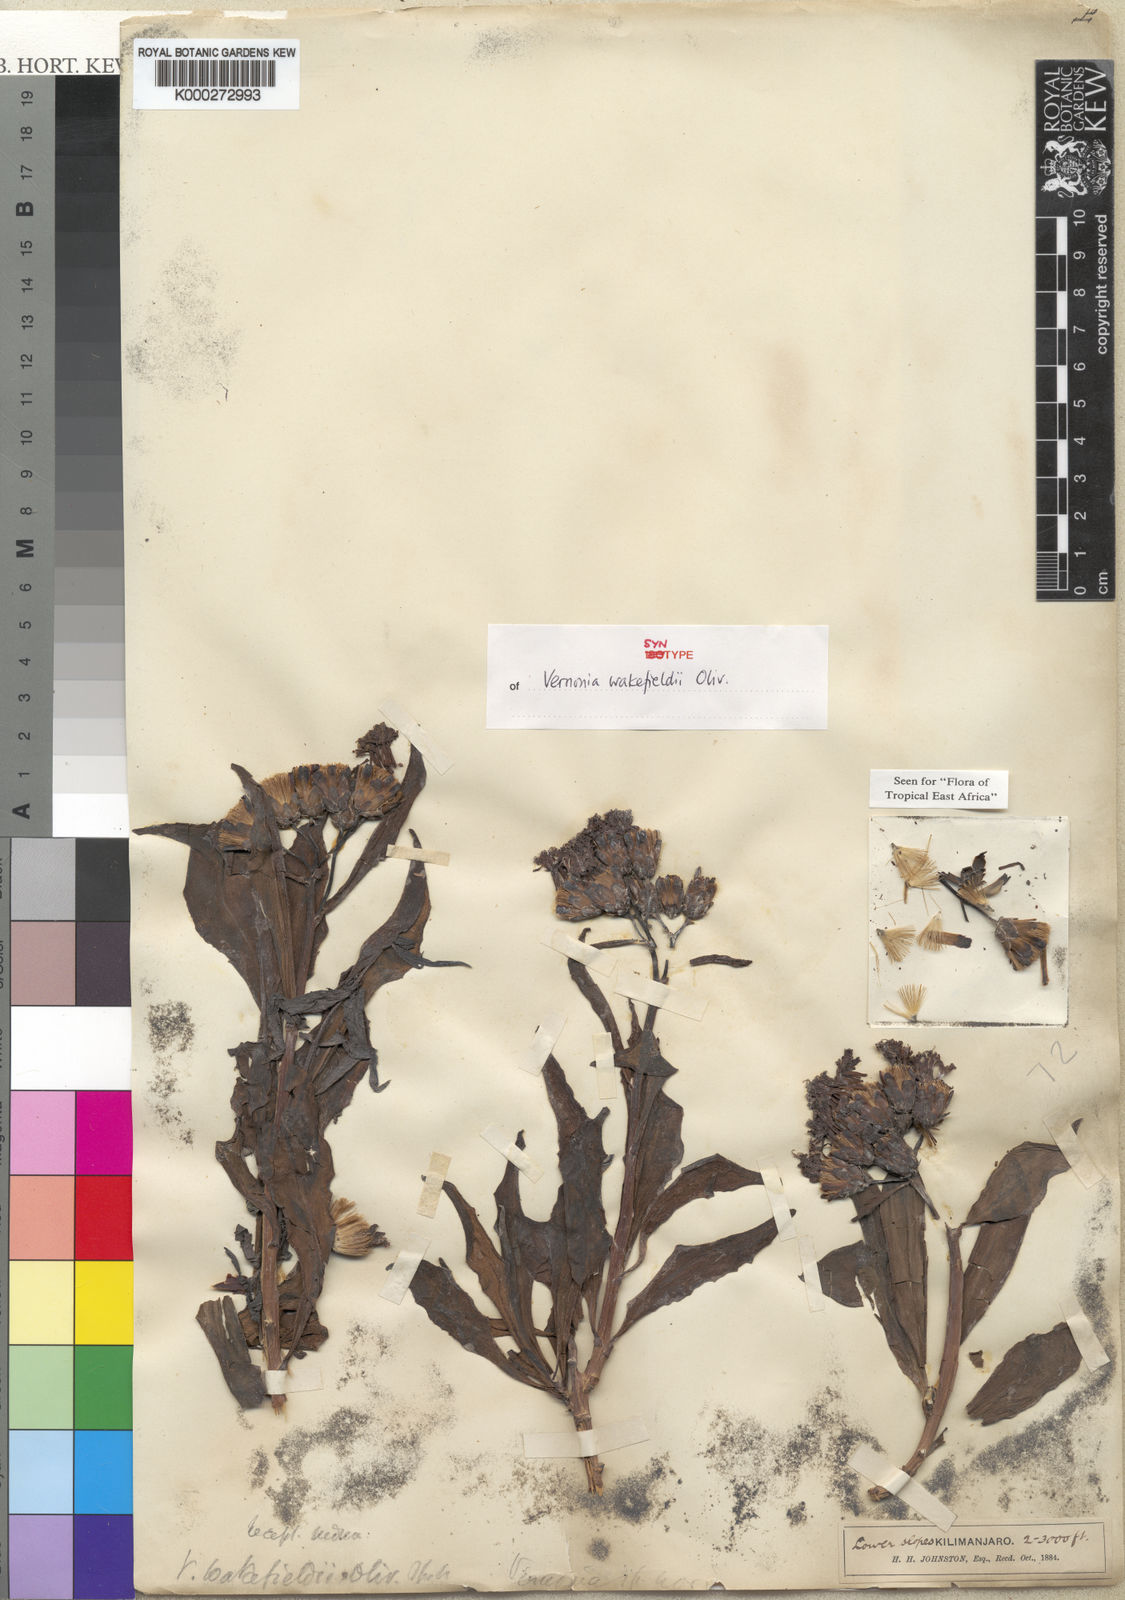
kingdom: Plantae
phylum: Tracheophyta
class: Magnoliopsida
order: Asterales
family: Asteraceae
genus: Vernonia
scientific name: Vernonia wakefieldii
